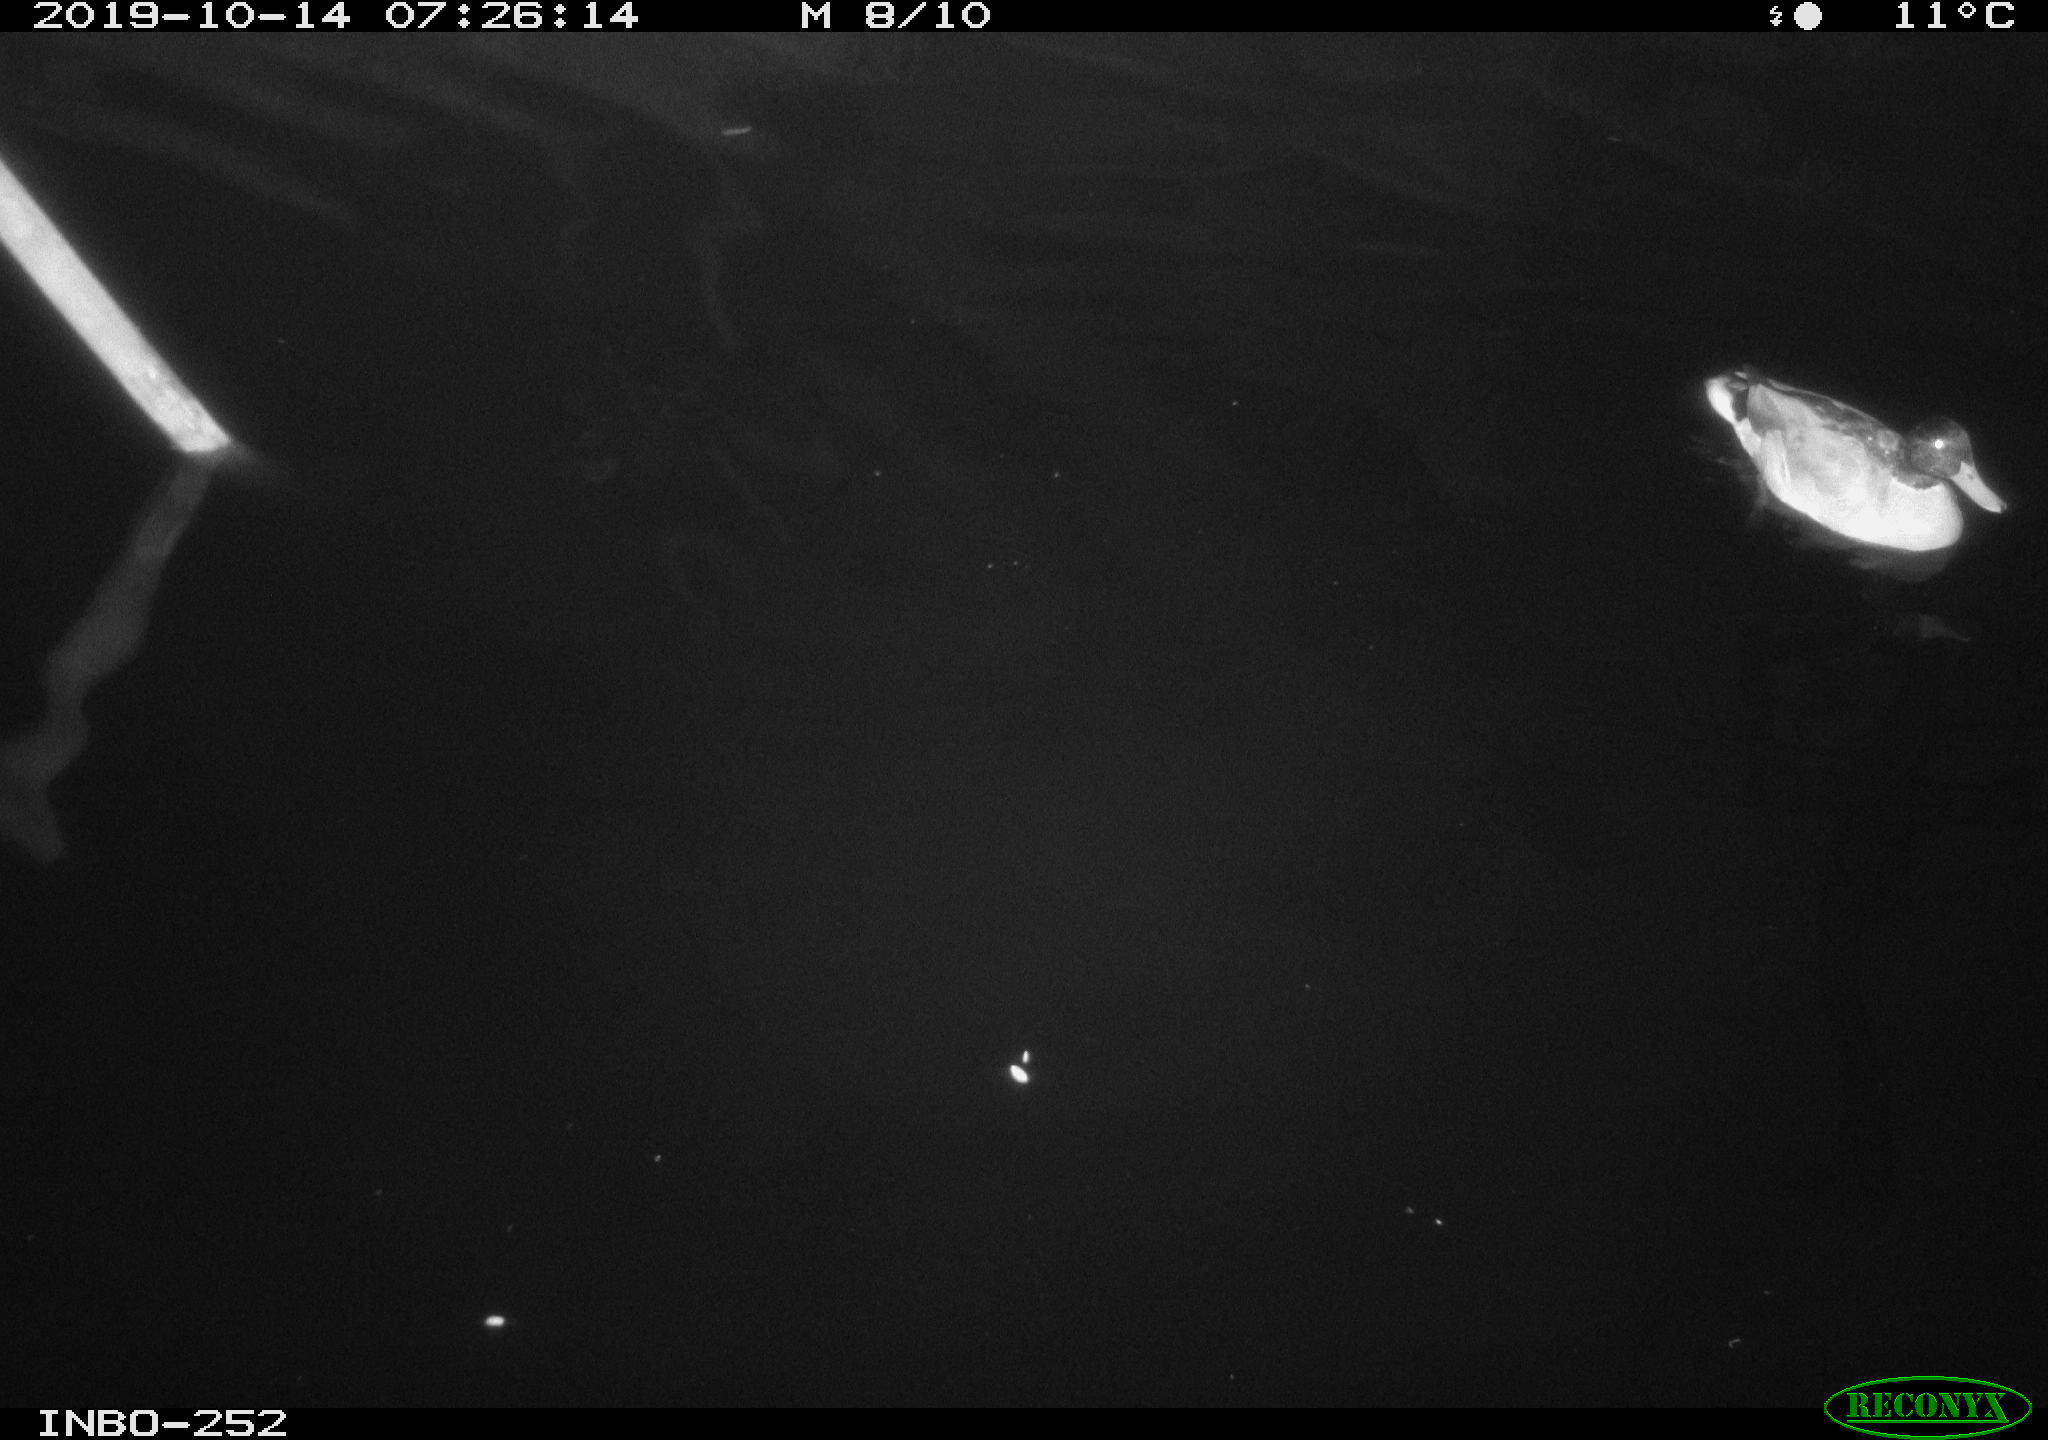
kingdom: Animalia
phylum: Chordata
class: Aves
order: Anseriformes
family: Anatidae
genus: Anas
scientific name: Anas platyrhynchos
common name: Mallard
